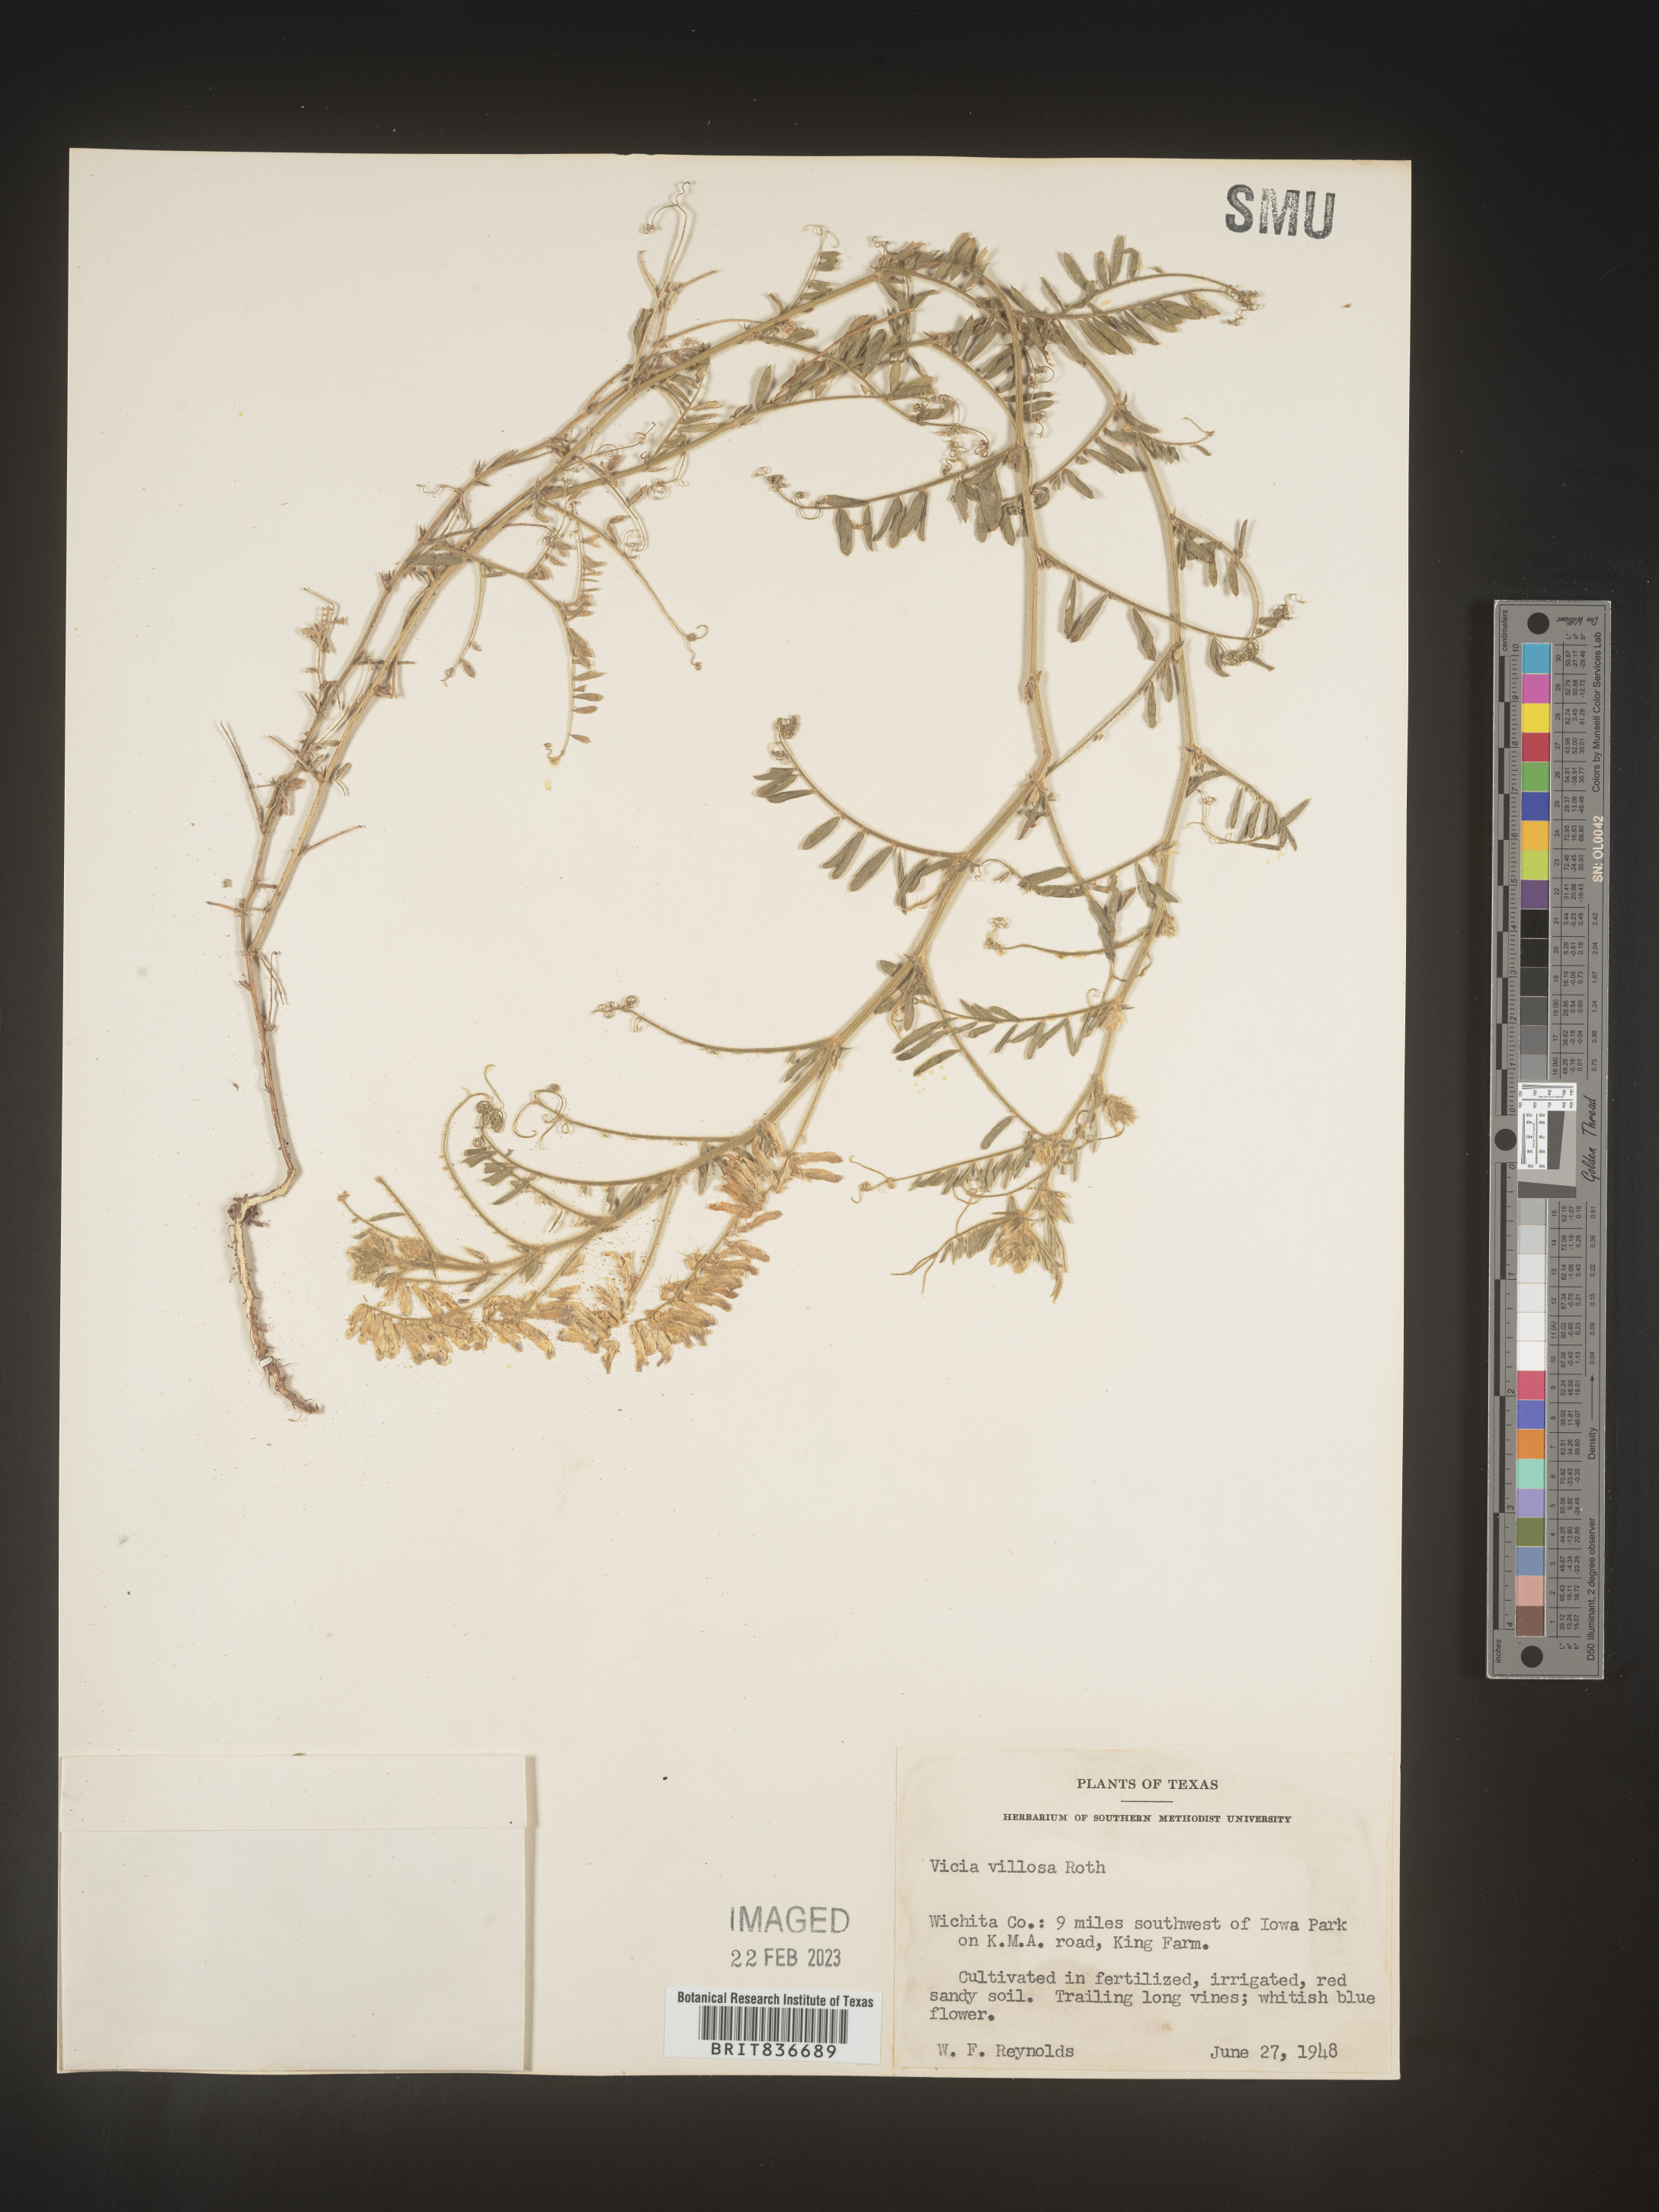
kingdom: Plantae
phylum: Tracheophyta
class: Magnoliopsida
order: Fabales
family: Fabaceae
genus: Vicia
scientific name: Vicia
